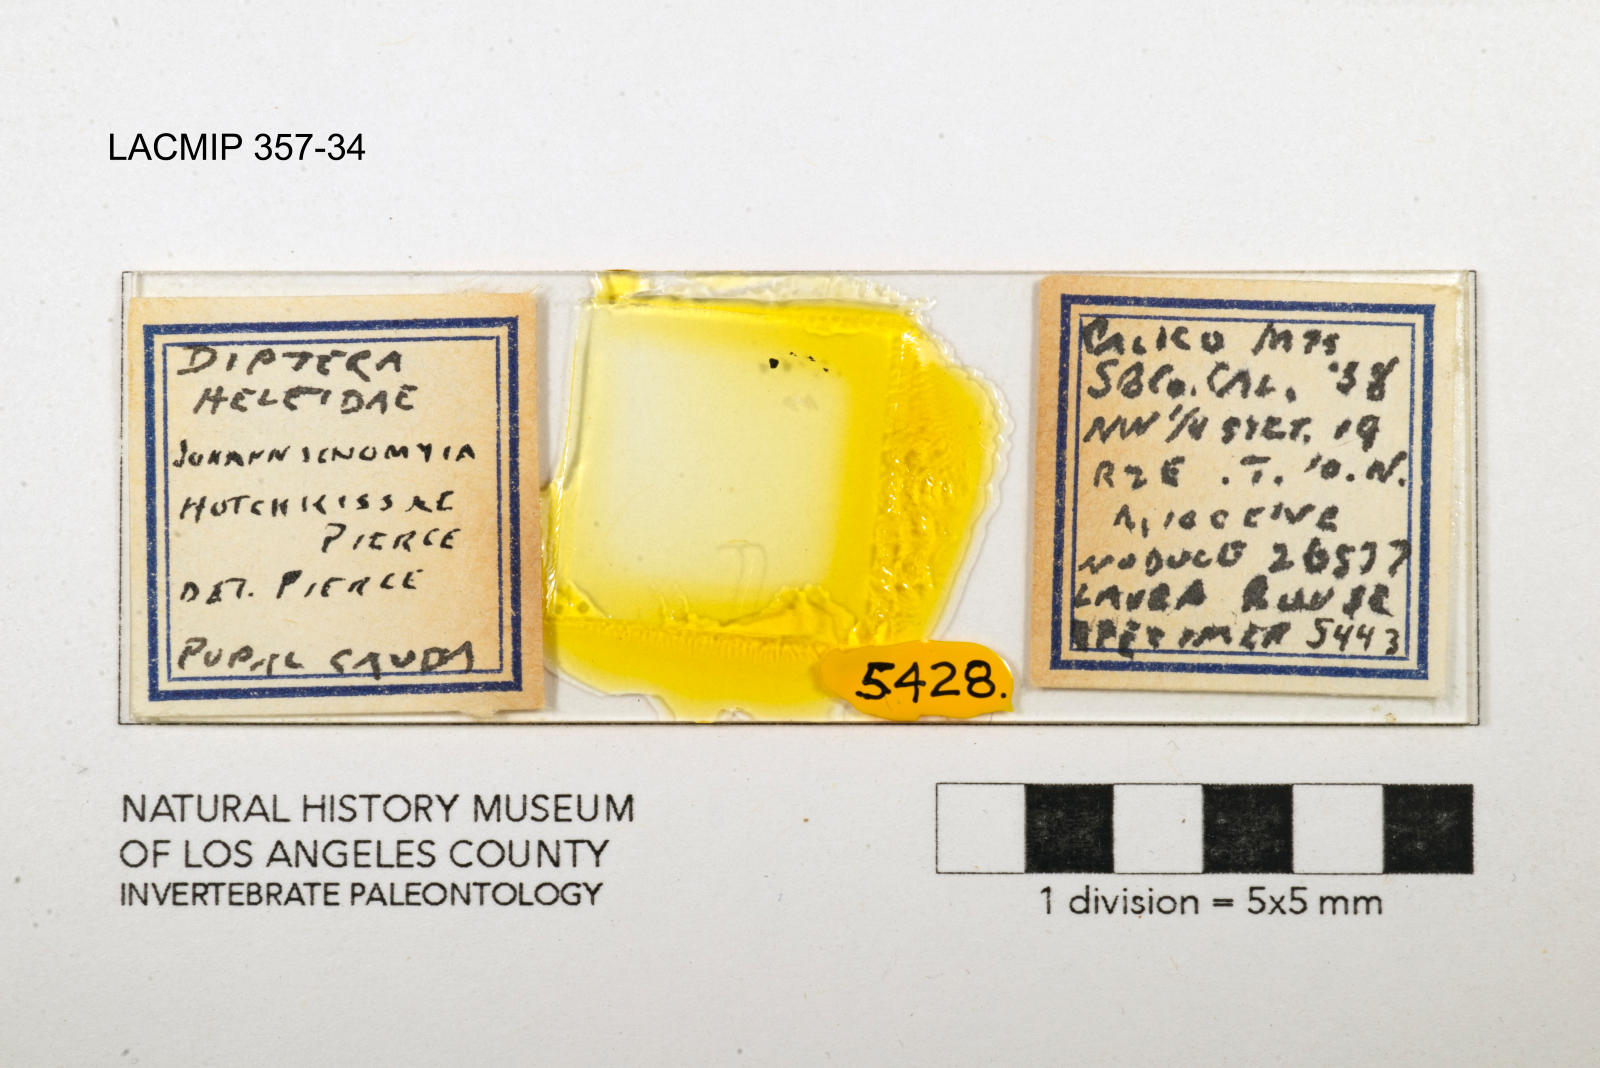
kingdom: Animalia
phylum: Arthropoda
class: Insecta
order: Diptera
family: Ceratopogonidae
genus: Johannsenomyia
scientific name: Johannsenomyia
